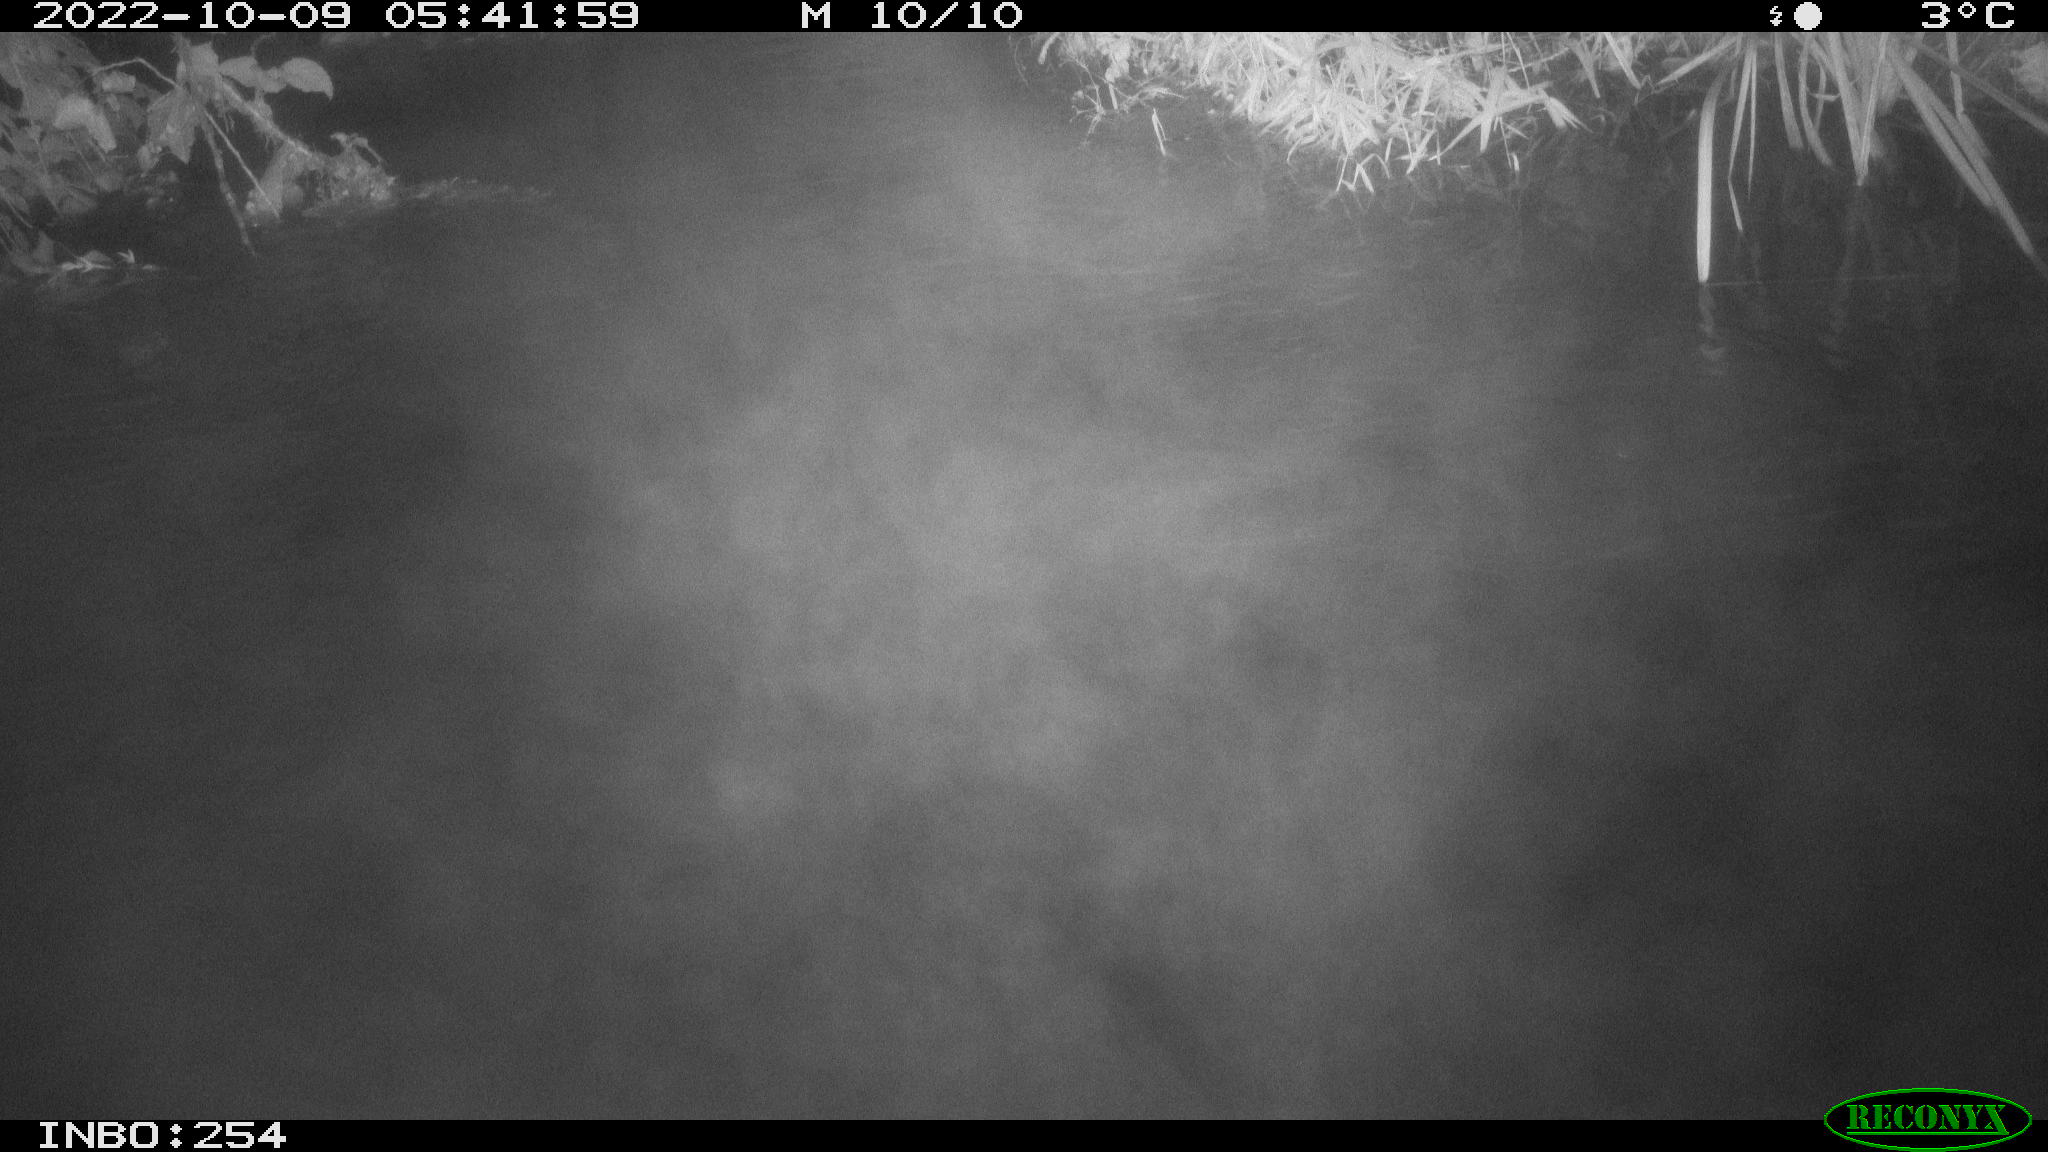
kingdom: Animalia
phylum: Chordata
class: Aves
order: Anseriformes
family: Anatidae
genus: Anas
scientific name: Anas
